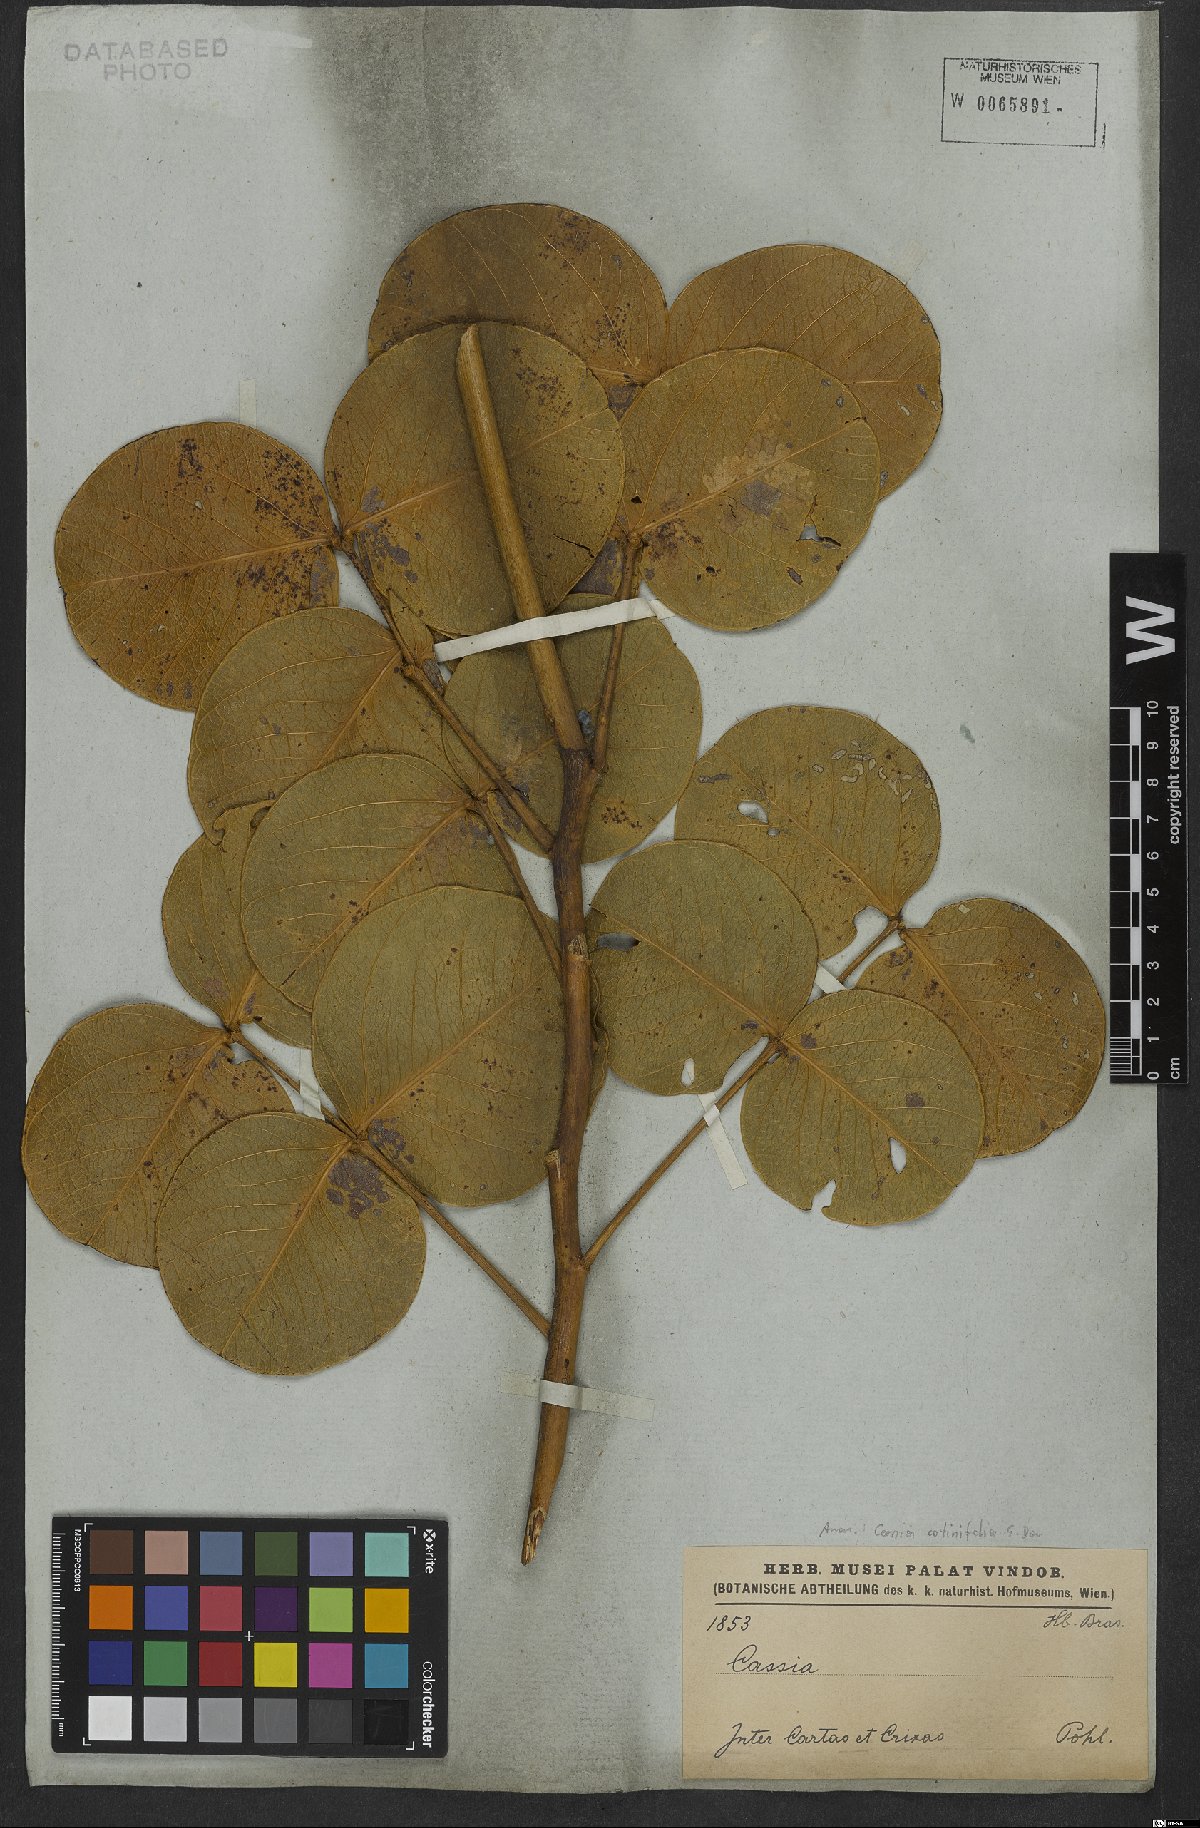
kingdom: Plantae
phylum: Tracheophyta
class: Magnoliopsida
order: Fabales
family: Fabaceae
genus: Chamaecrista
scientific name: Chamaecrista cotinifolia
